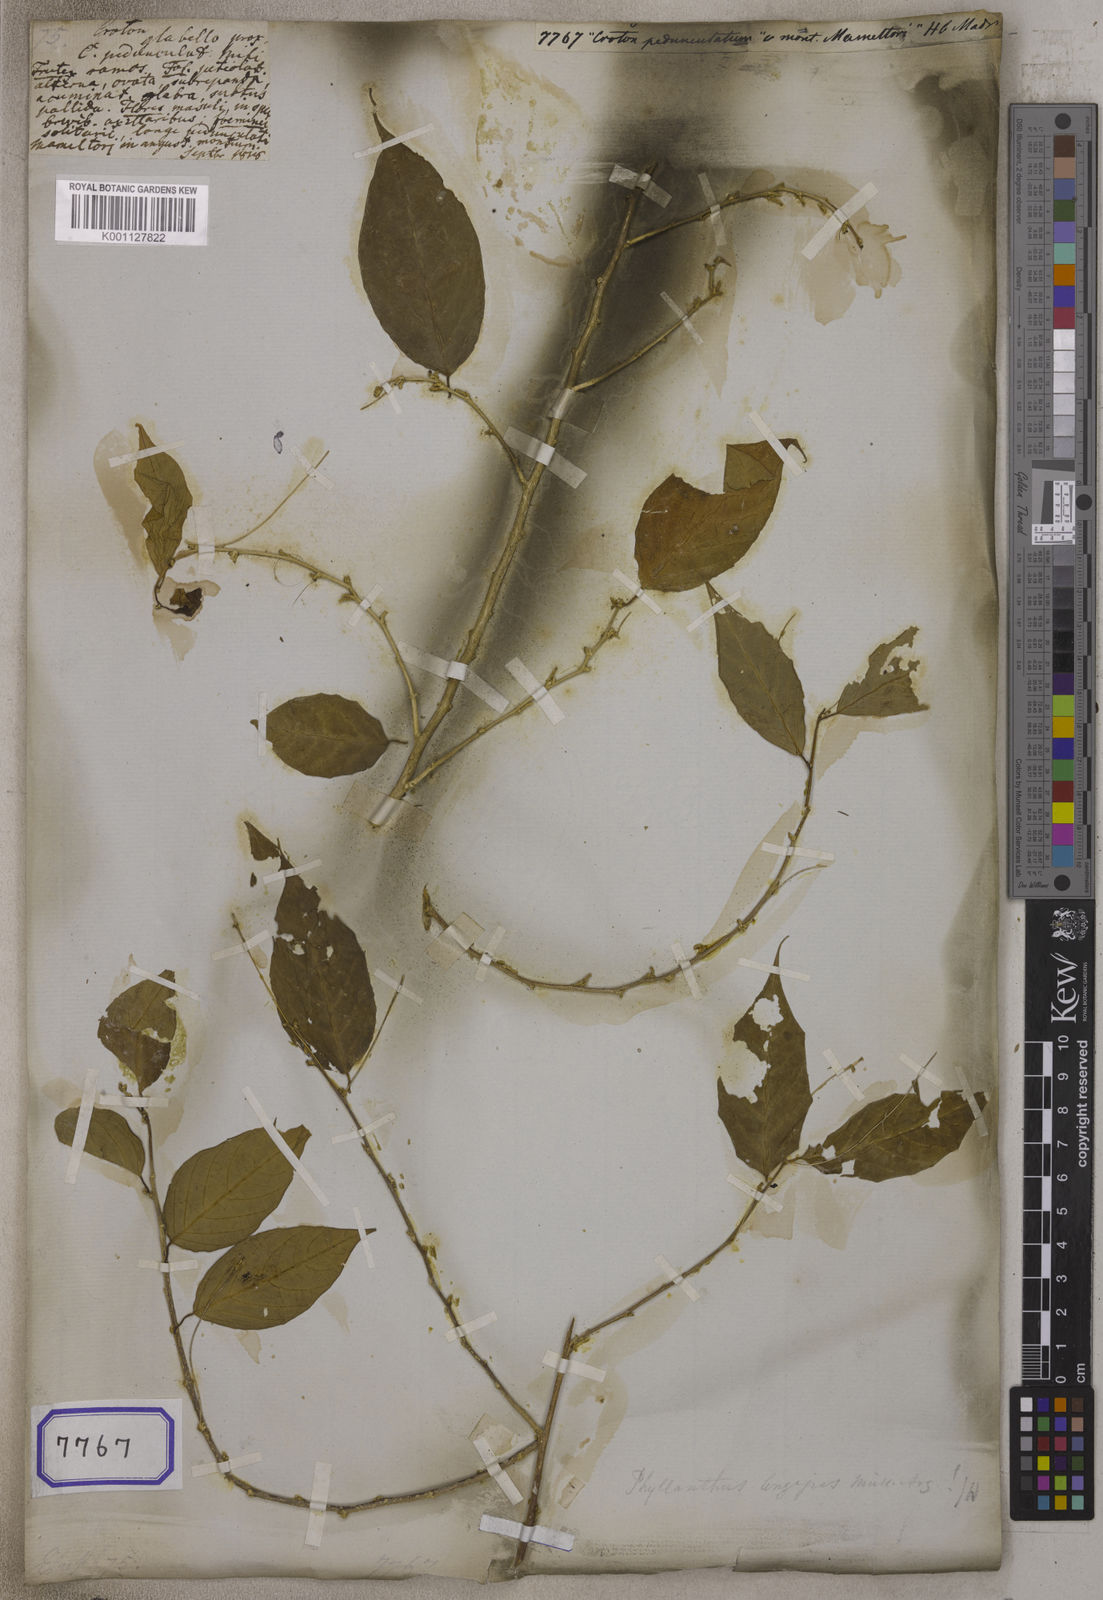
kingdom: Plantae
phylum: Tracheophyta
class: Magnoliopsida
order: Malpighiales
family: Euphorbiaceae
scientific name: Euphorbiaceae
